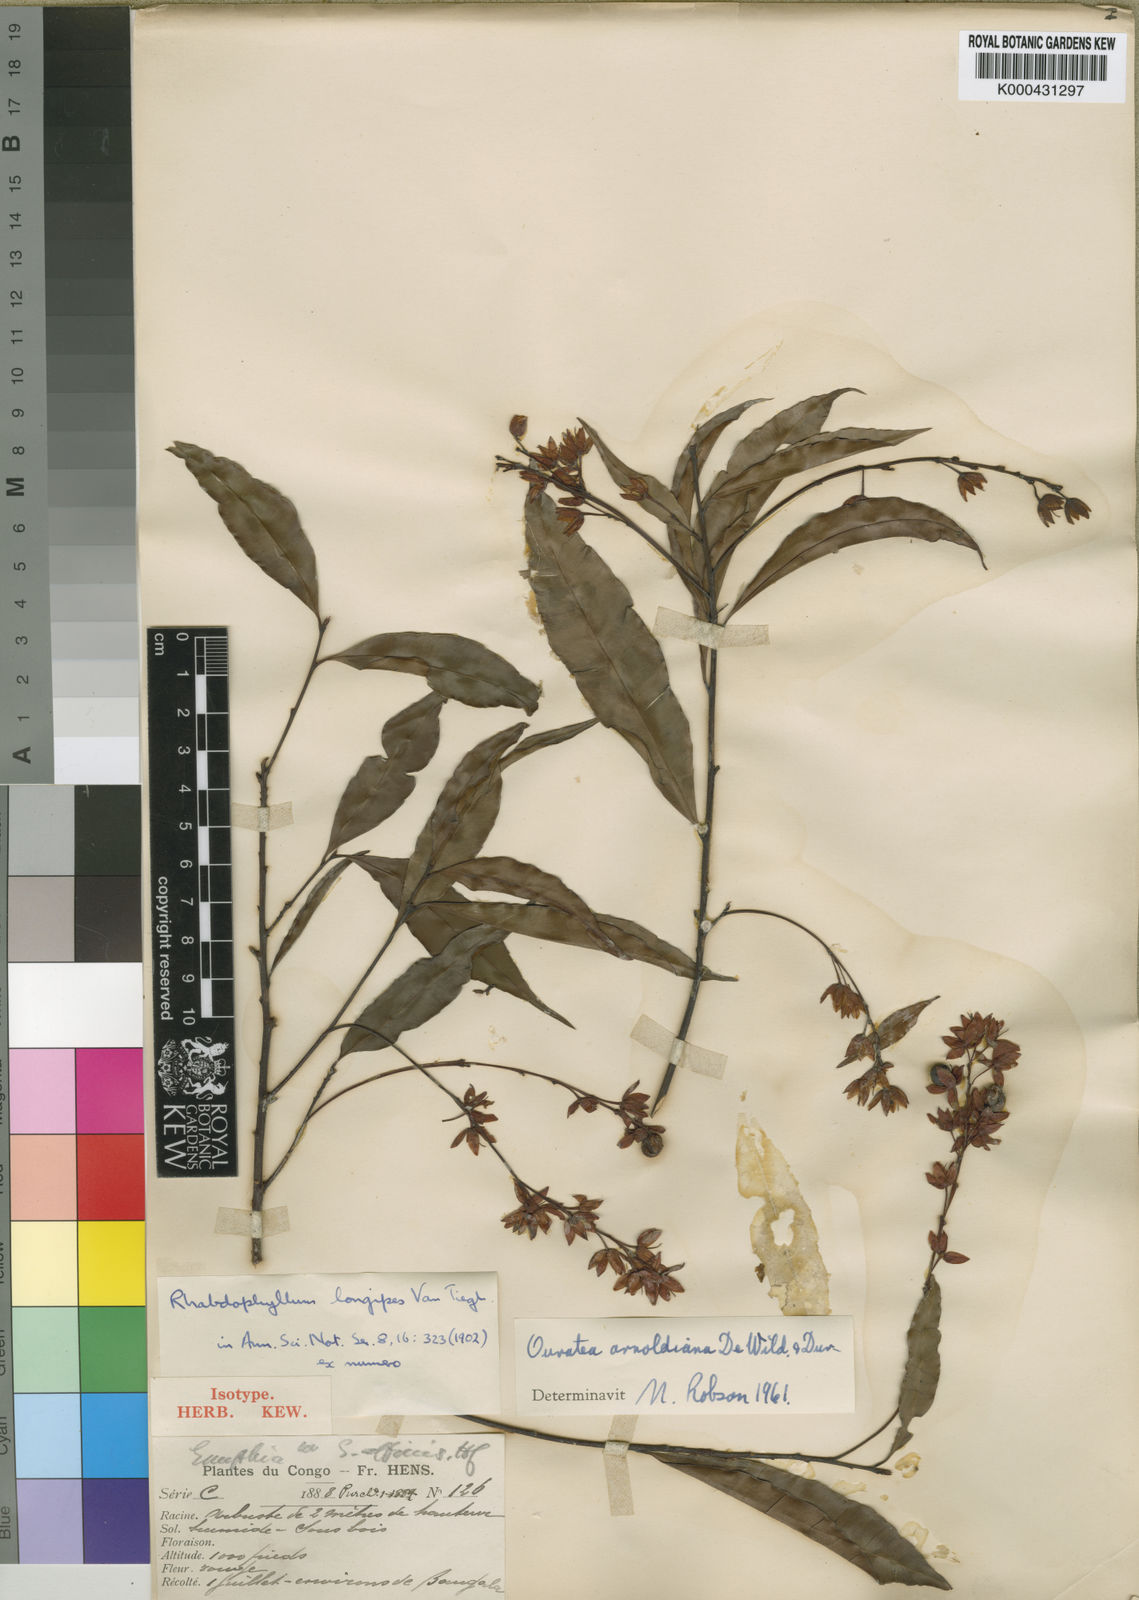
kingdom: Plantae
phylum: Tracheophyta
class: Magnoliopsida
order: Malpighiales
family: Ochnaceae
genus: Rhabdophyllum
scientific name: Rhabdophyllum
